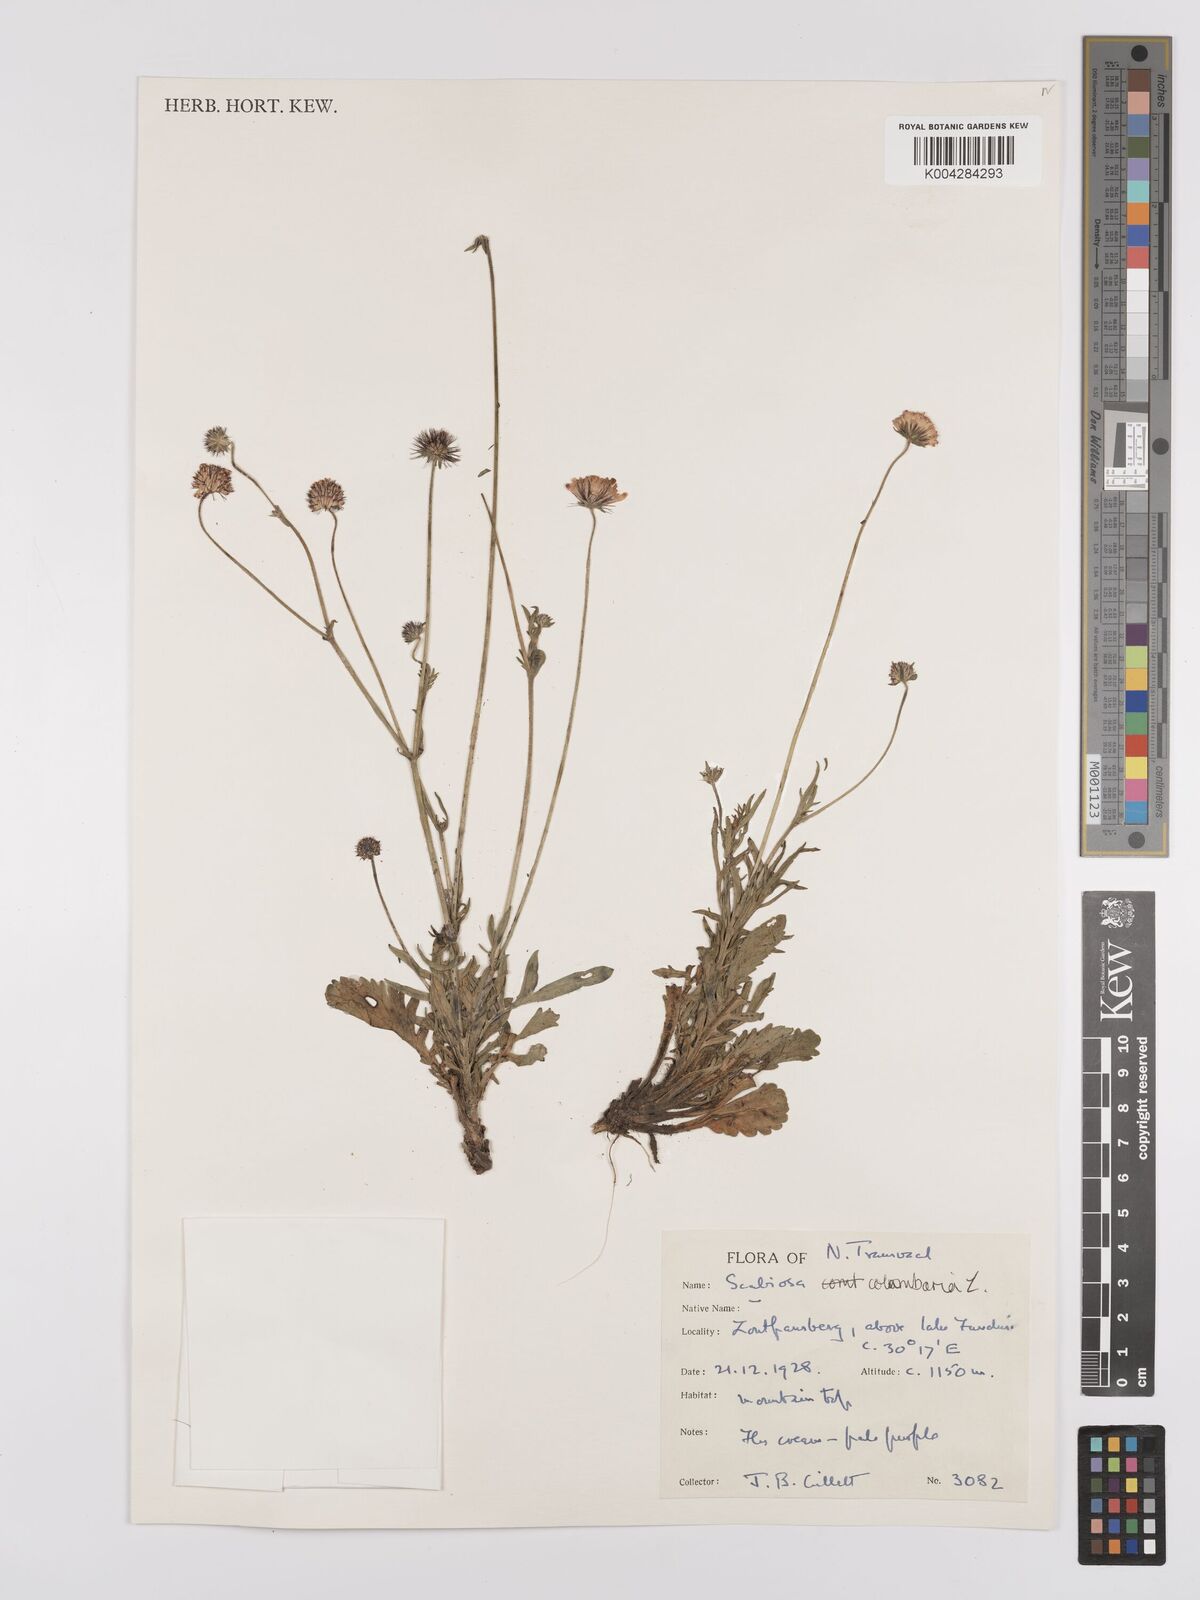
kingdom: Plantae
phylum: Tracheophyta
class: Magnoliopsida
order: Dipsacales
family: Caprifoliaceae
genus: Scabiosa
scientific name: Scabiosa columbaria
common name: Small scabious
